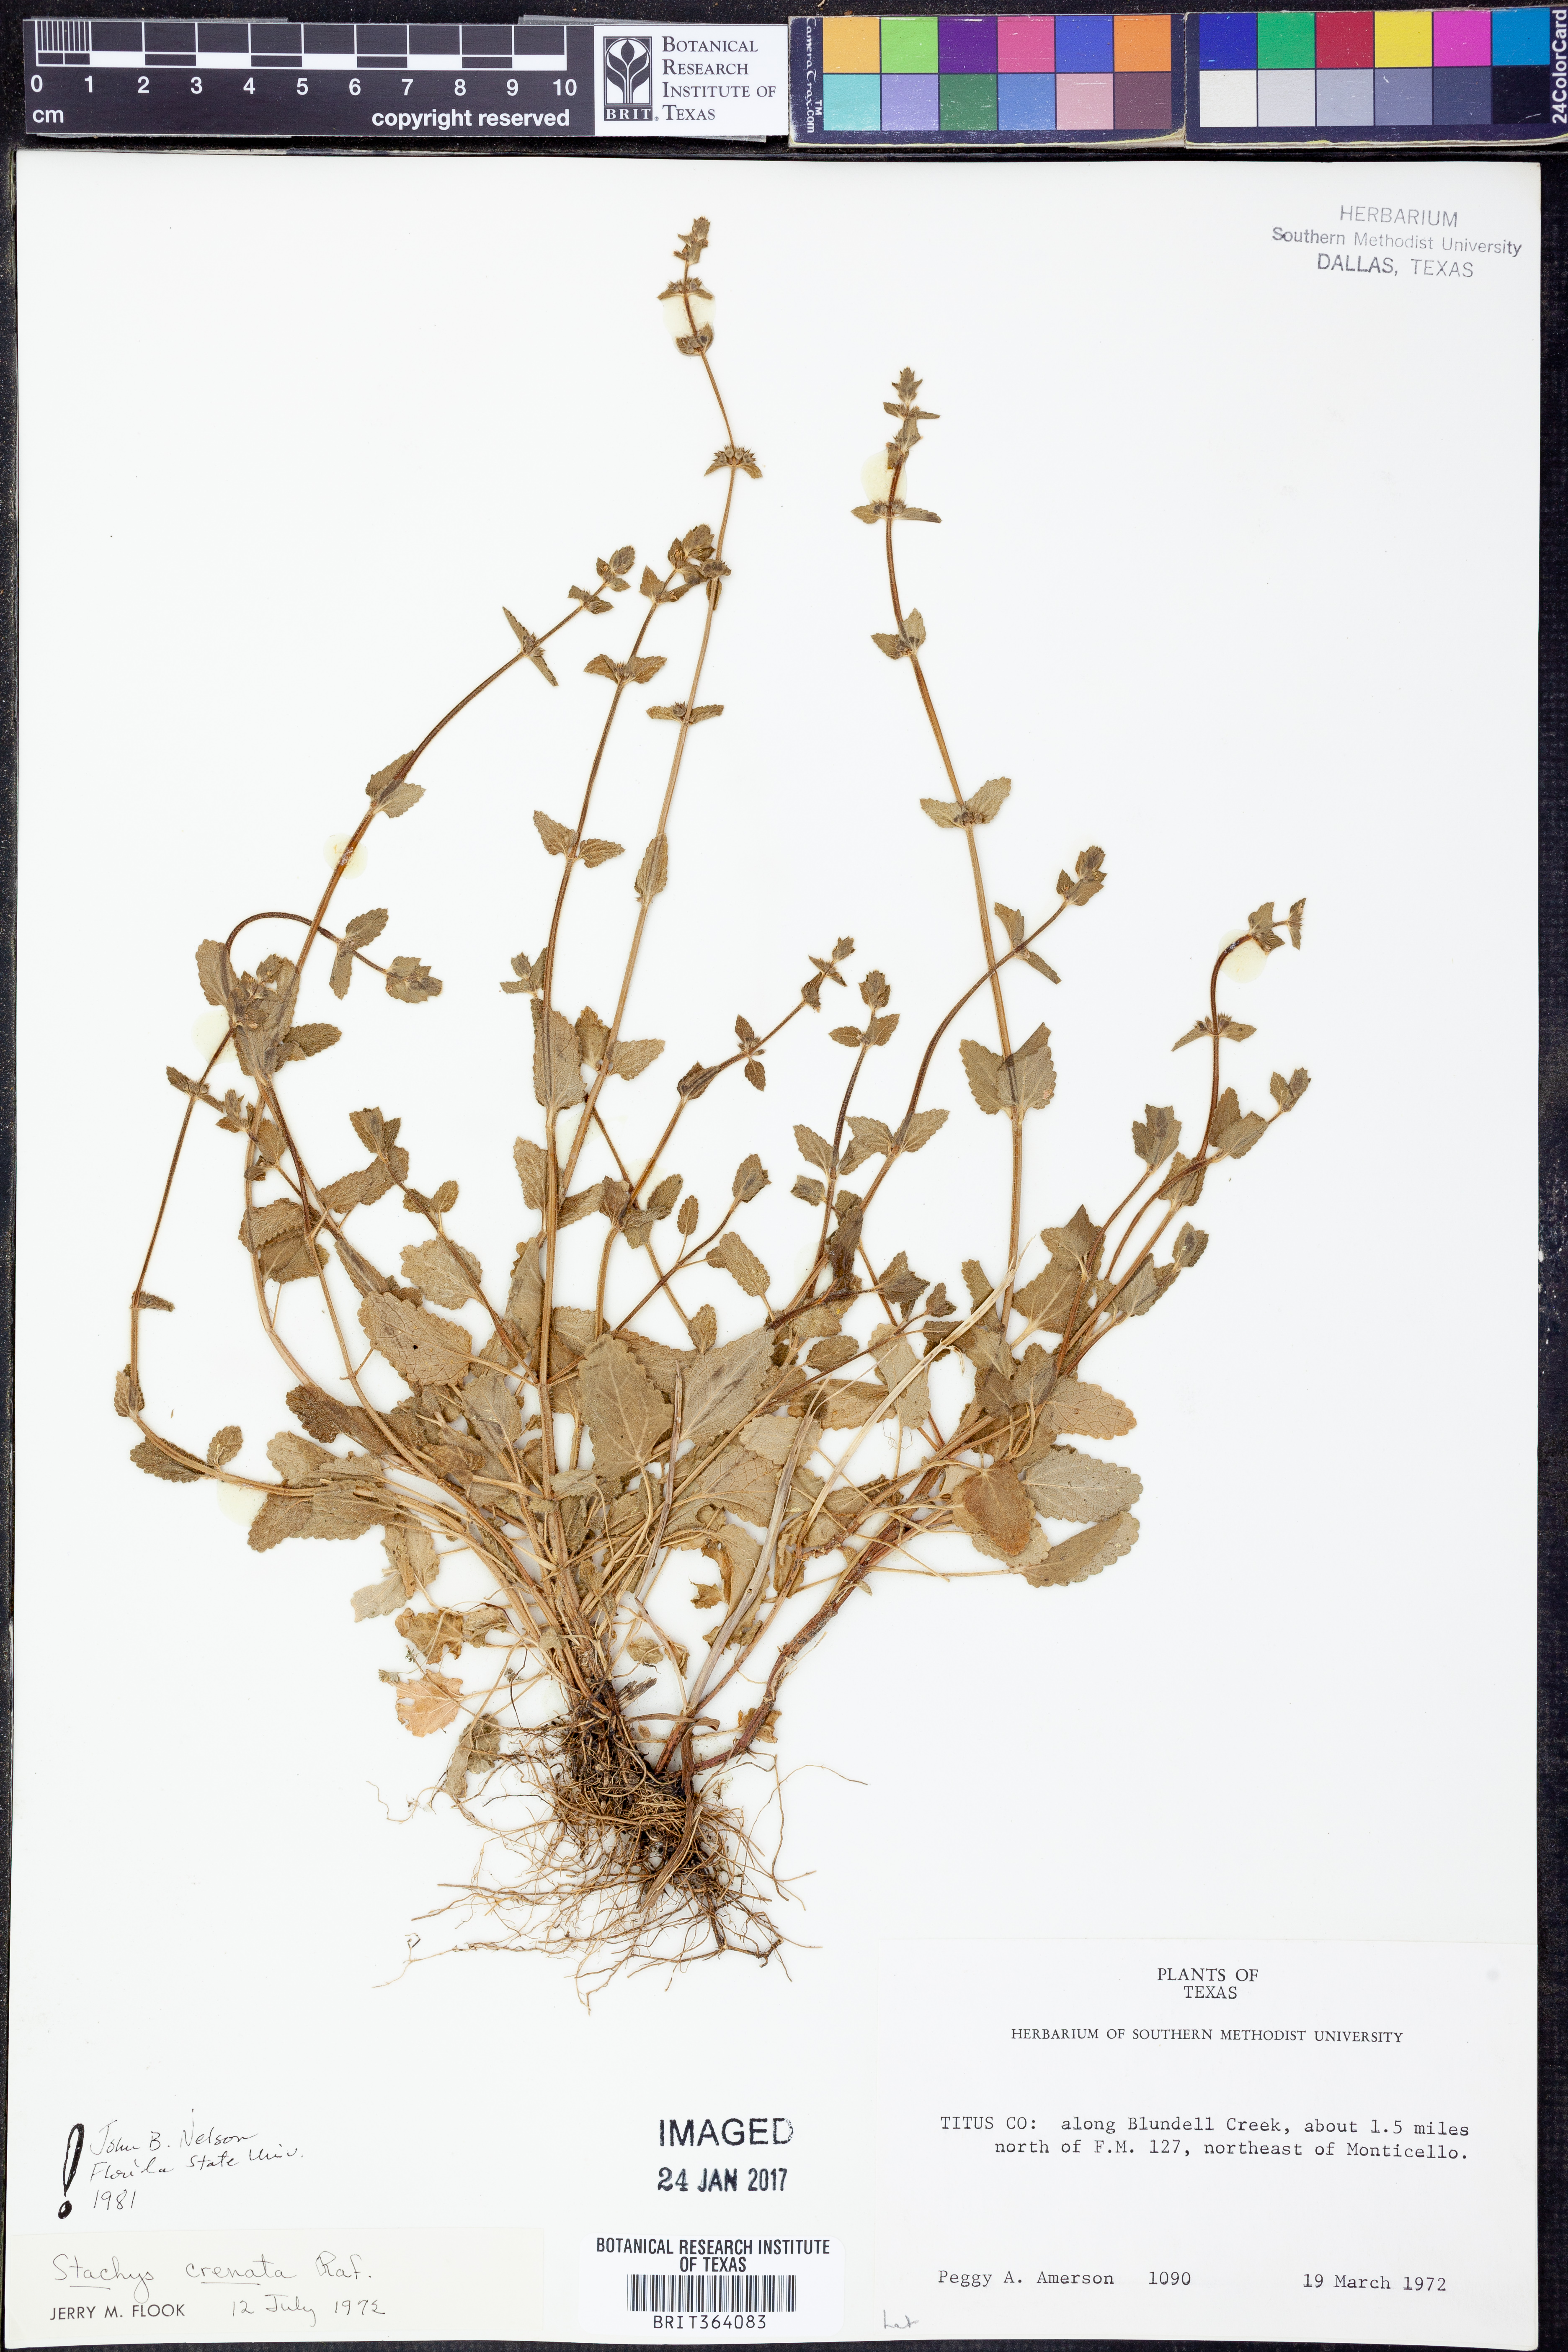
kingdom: Plantae
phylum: Tracheophyta
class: Magnoliopsida
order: Lamiales
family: Lamiaceae
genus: Stachys
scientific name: Stachys agraria
